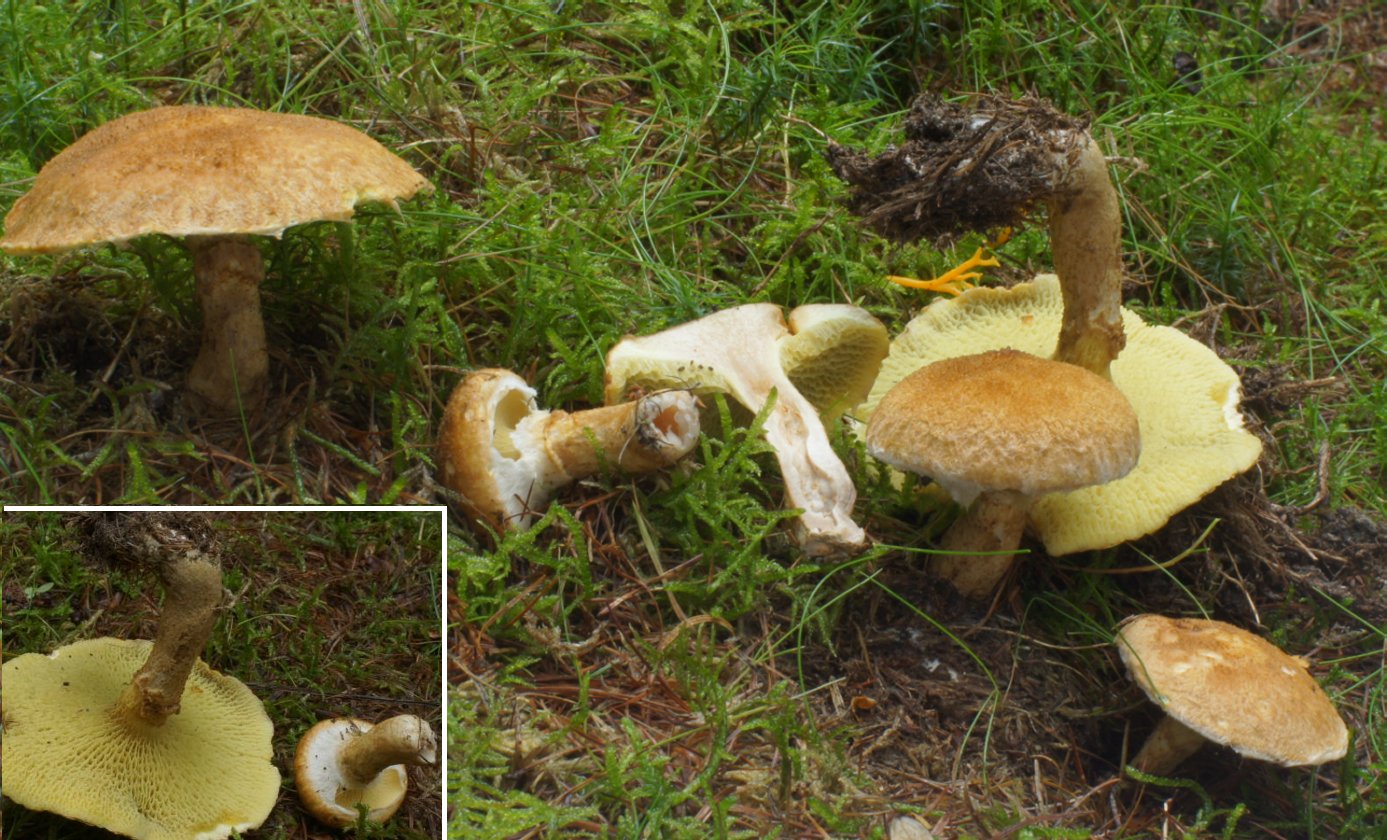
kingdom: Fungi
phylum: Basidiomycota
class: Agaricomycetes
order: Boletales
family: Suillaceae
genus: Suillus
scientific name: Suillus cavipes
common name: hulstokket slimrørhat
